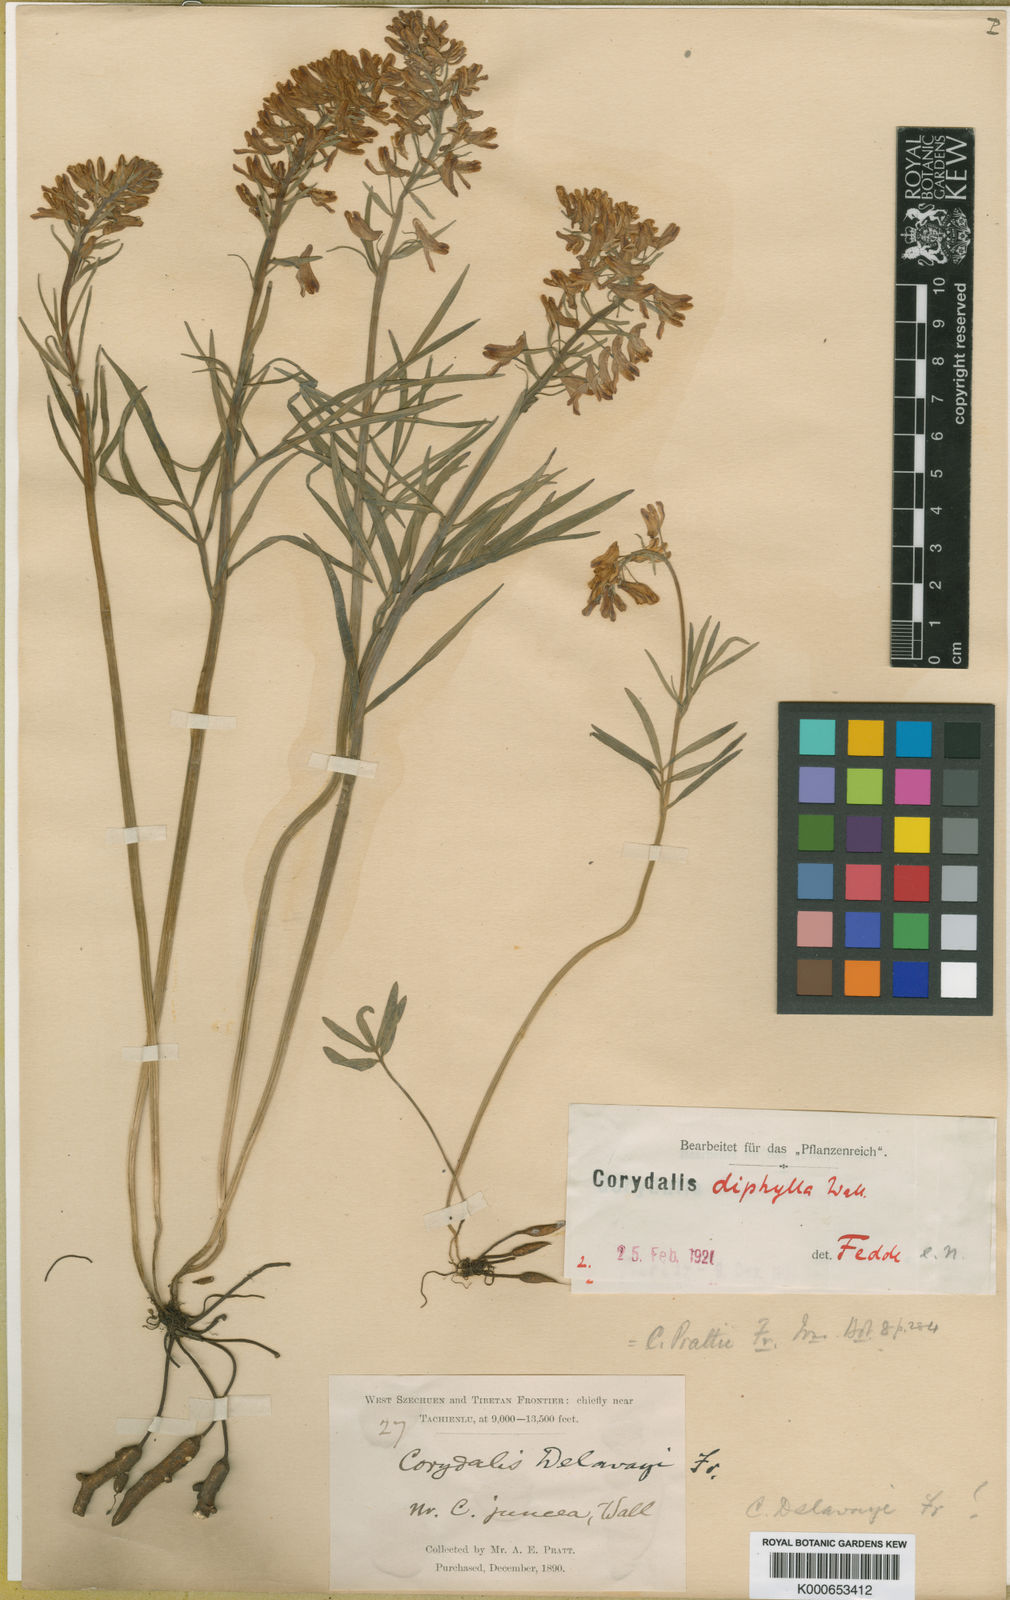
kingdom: Plantae
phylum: Tracheophyta
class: Magnoliopsida
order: Ranunculales
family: Papaveraceae
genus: Corydalis
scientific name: Corydalis prattii
